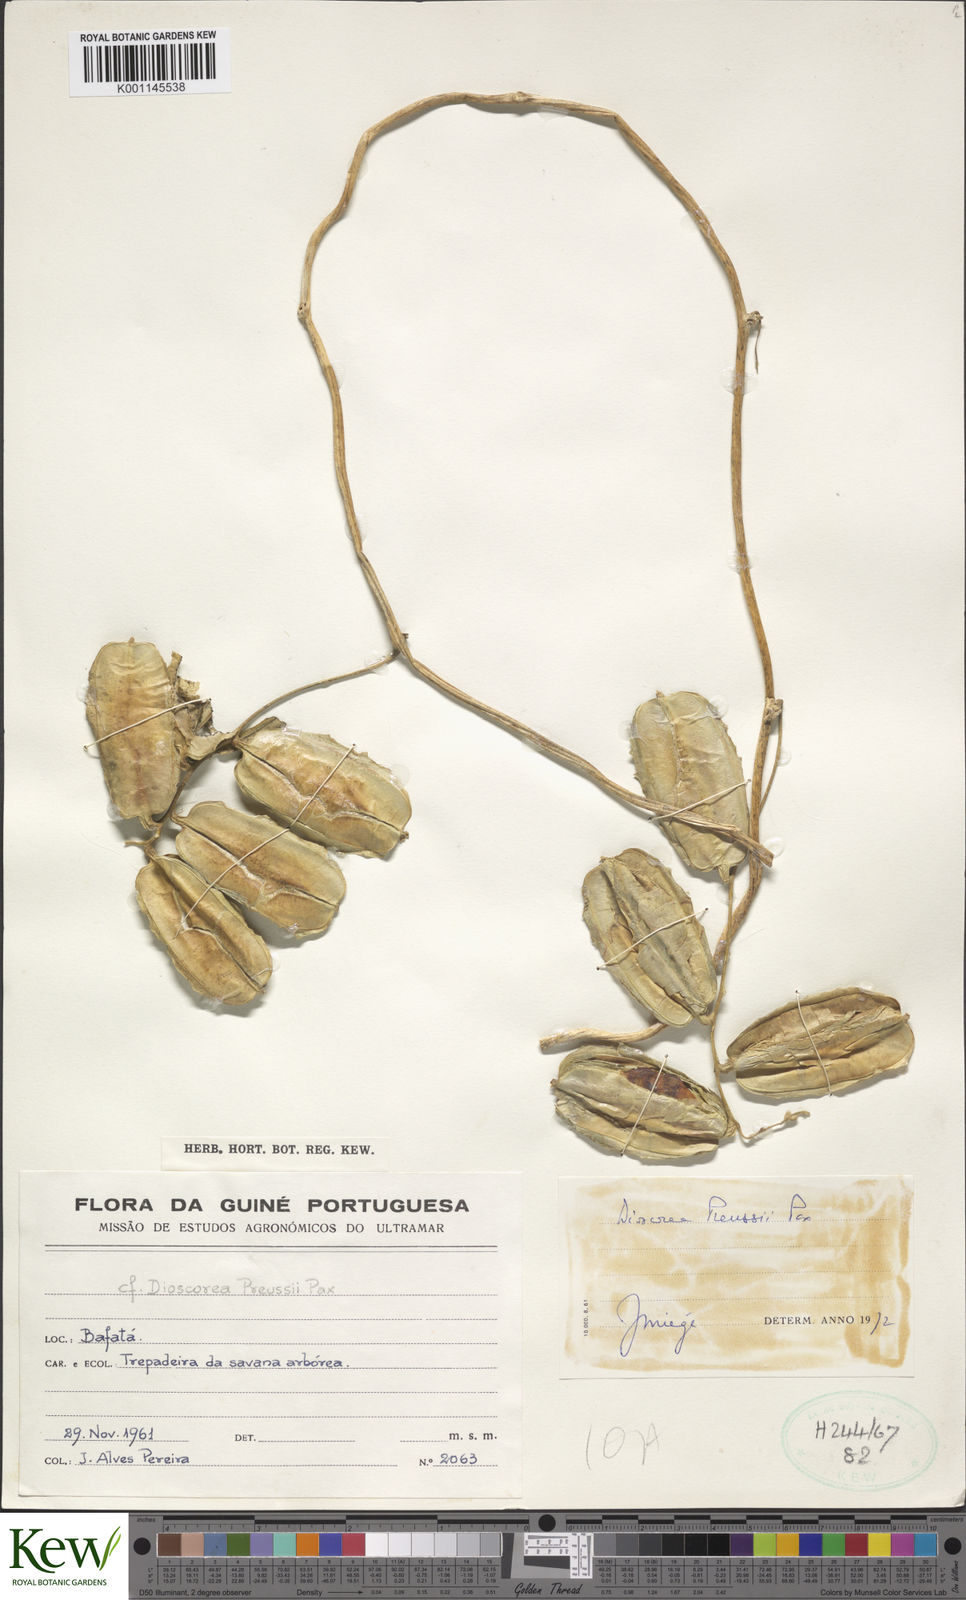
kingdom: Plantae
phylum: Tracheophyta
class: Liliopsida
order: Dioscoreales
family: Dioscoreaceae
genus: Dioscorea
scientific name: Dioscorea preussii
